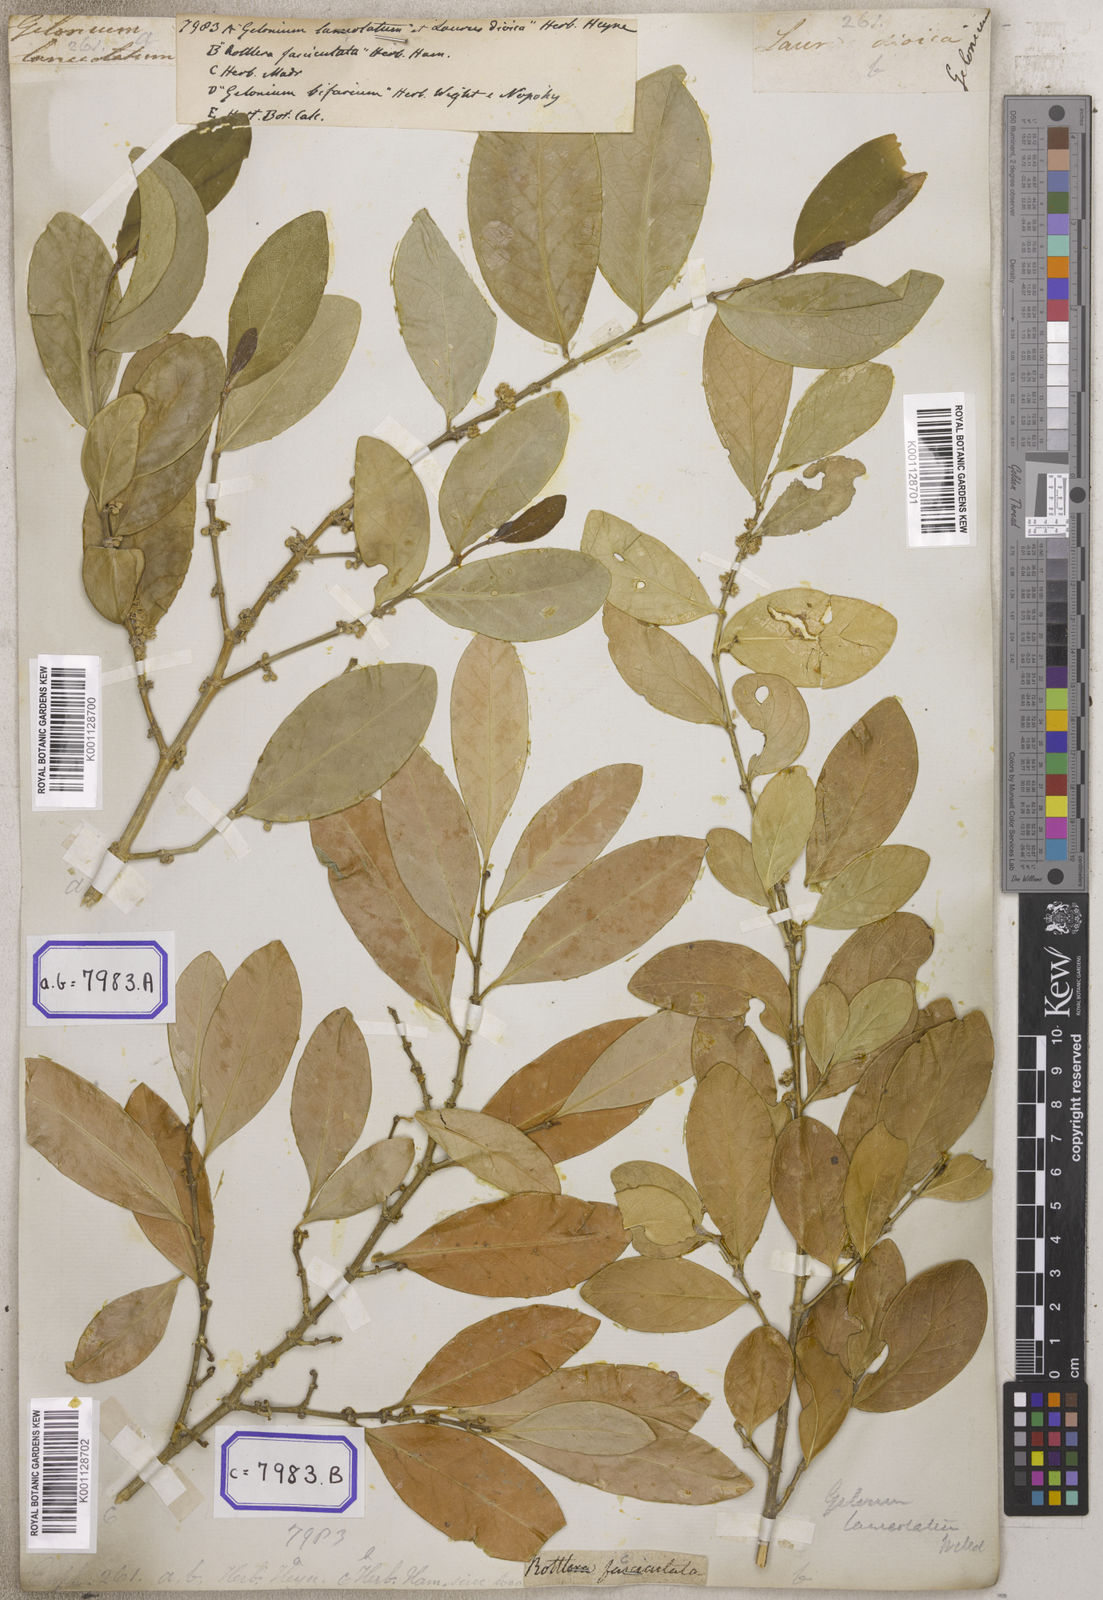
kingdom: Plantae
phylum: Tracheophyta
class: Magnoliopsida
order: Malpighiales
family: Euphorbiaceae
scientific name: Euphorbiaceae
